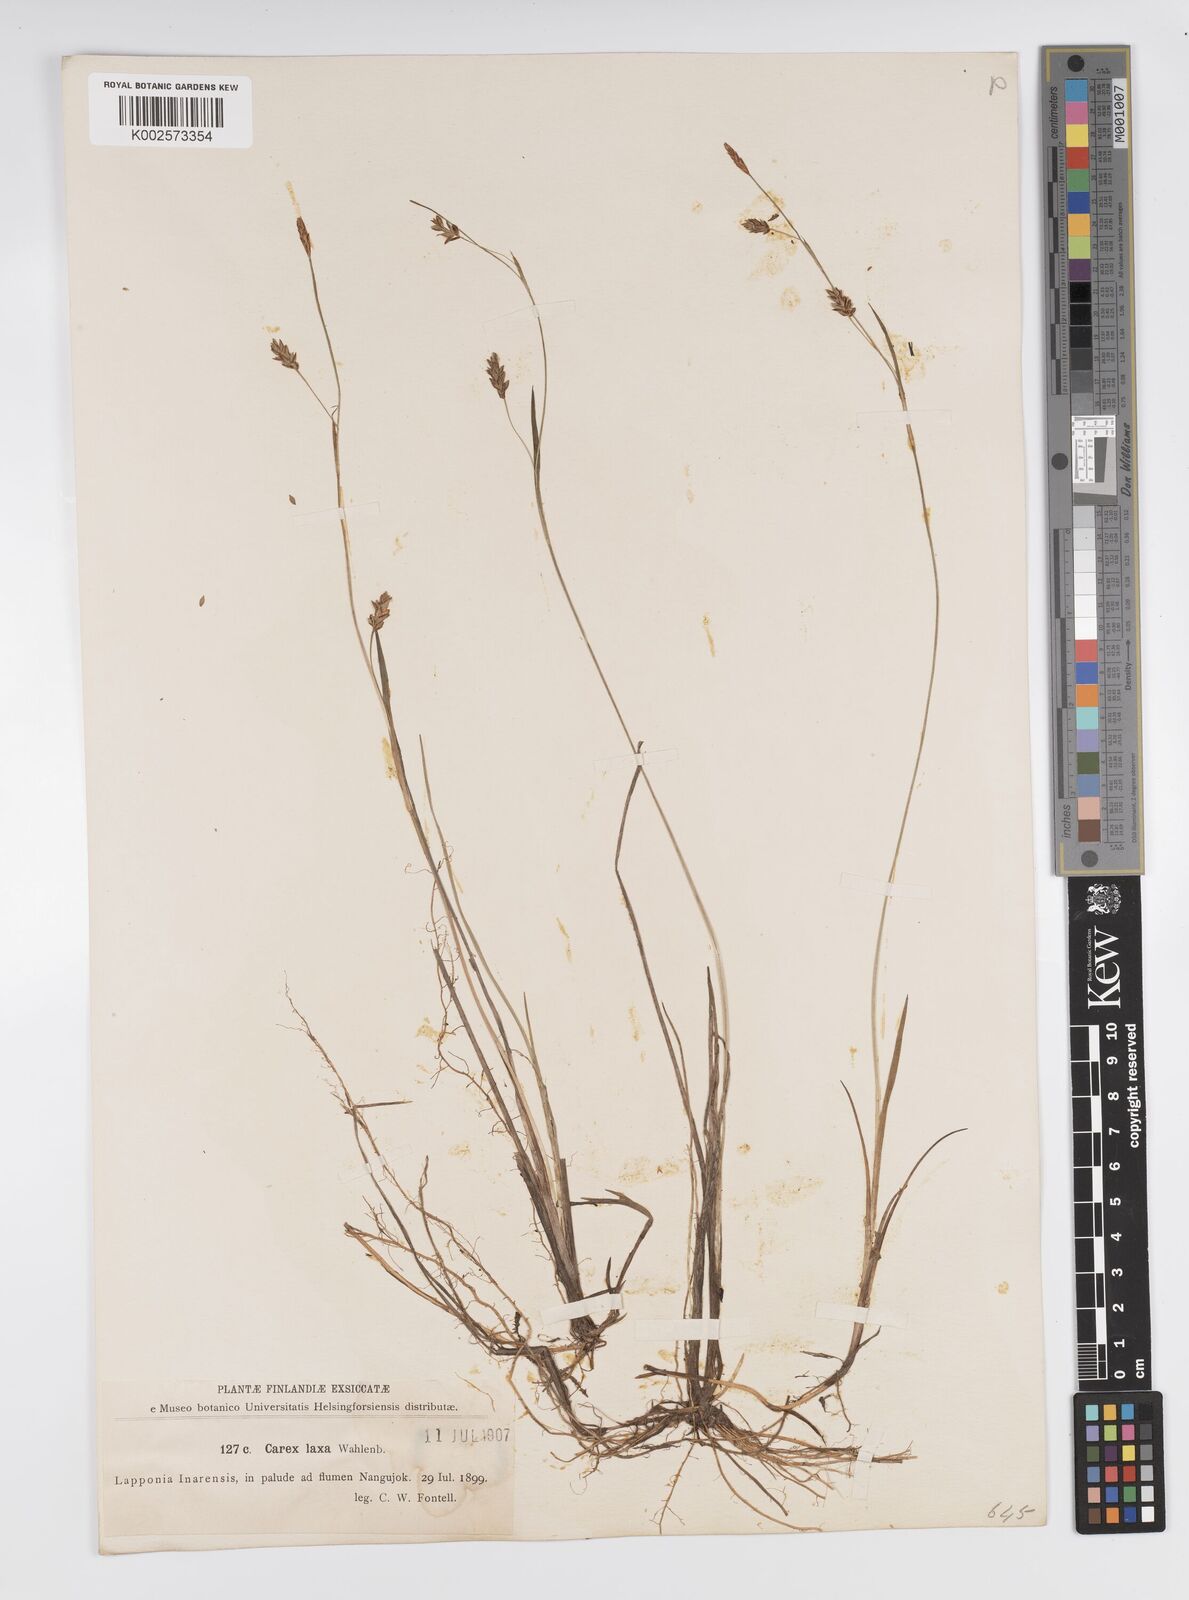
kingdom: Plantae
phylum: Tracheophyta
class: Liliopsida
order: Poales
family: Cyperaceae
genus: Carex
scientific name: Carex laxa
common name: Weak sedge
